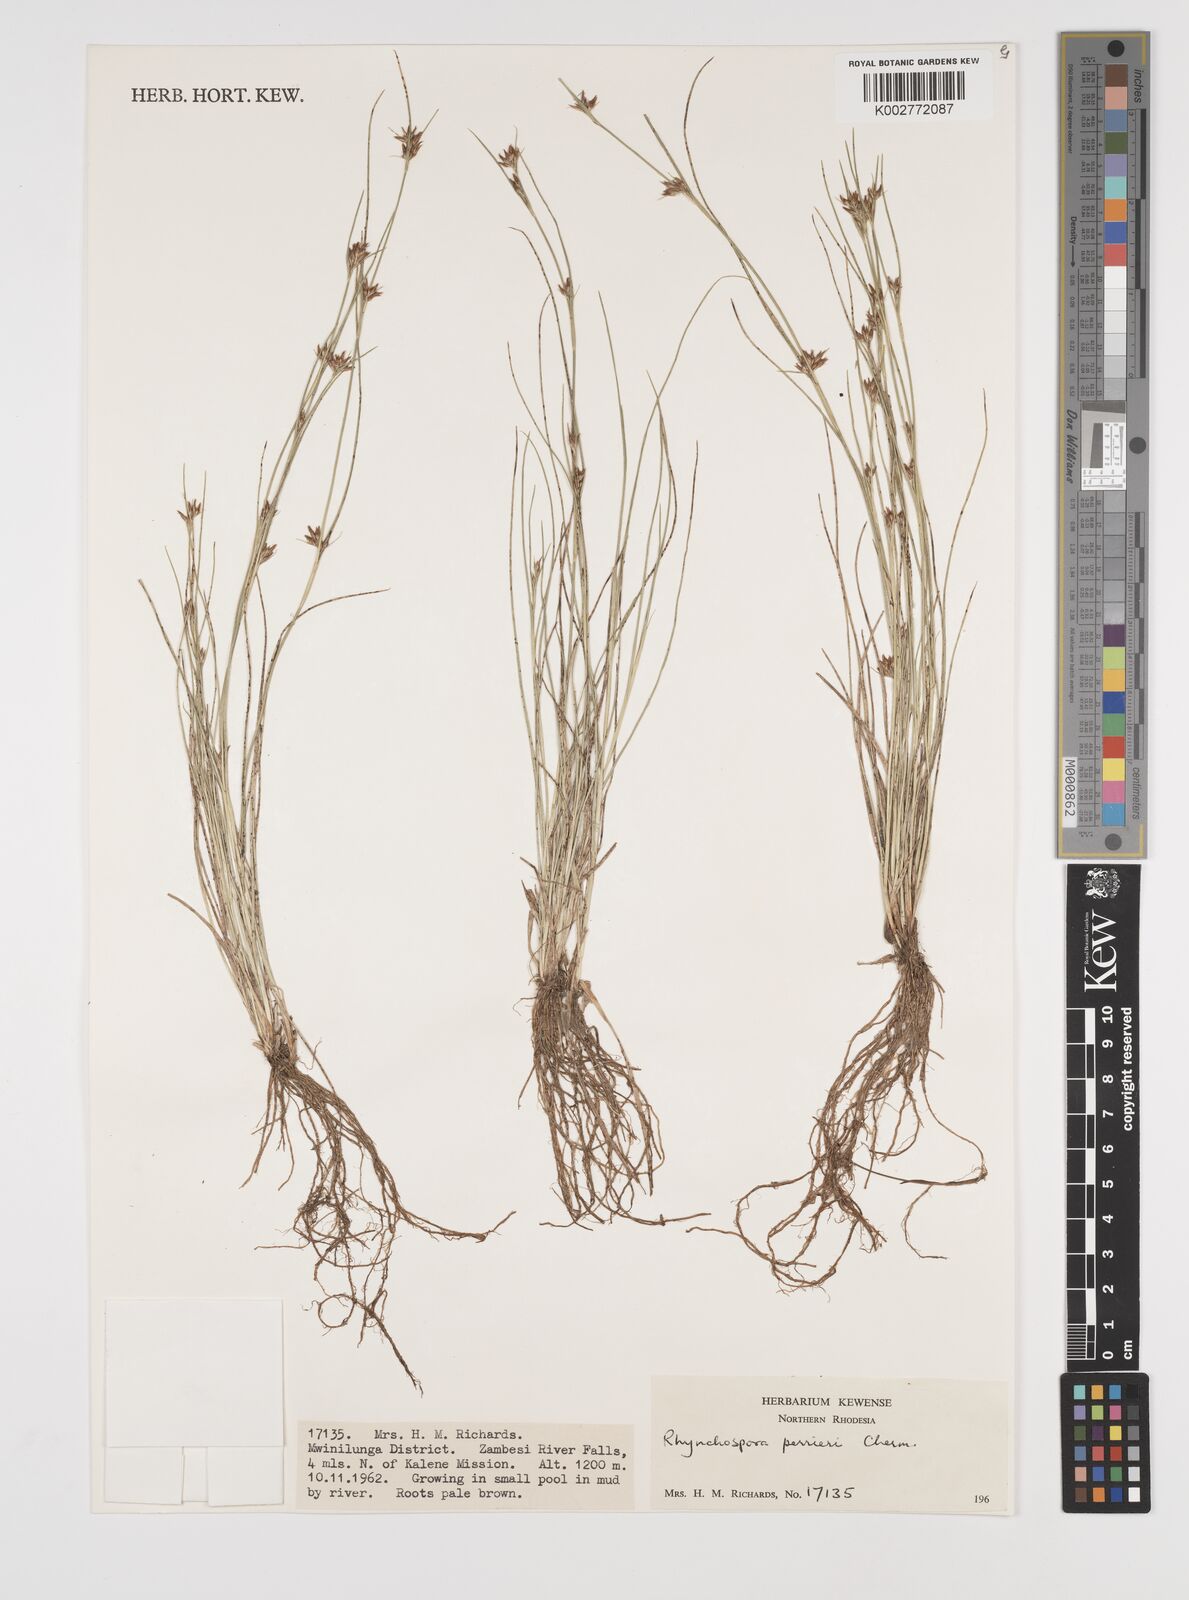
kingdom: Plantae
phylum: Tracheophyta
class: Liliopsida
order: Poales
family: Cyperaceae
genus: Rhynchospora
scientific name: Rhynchospora perrieri
